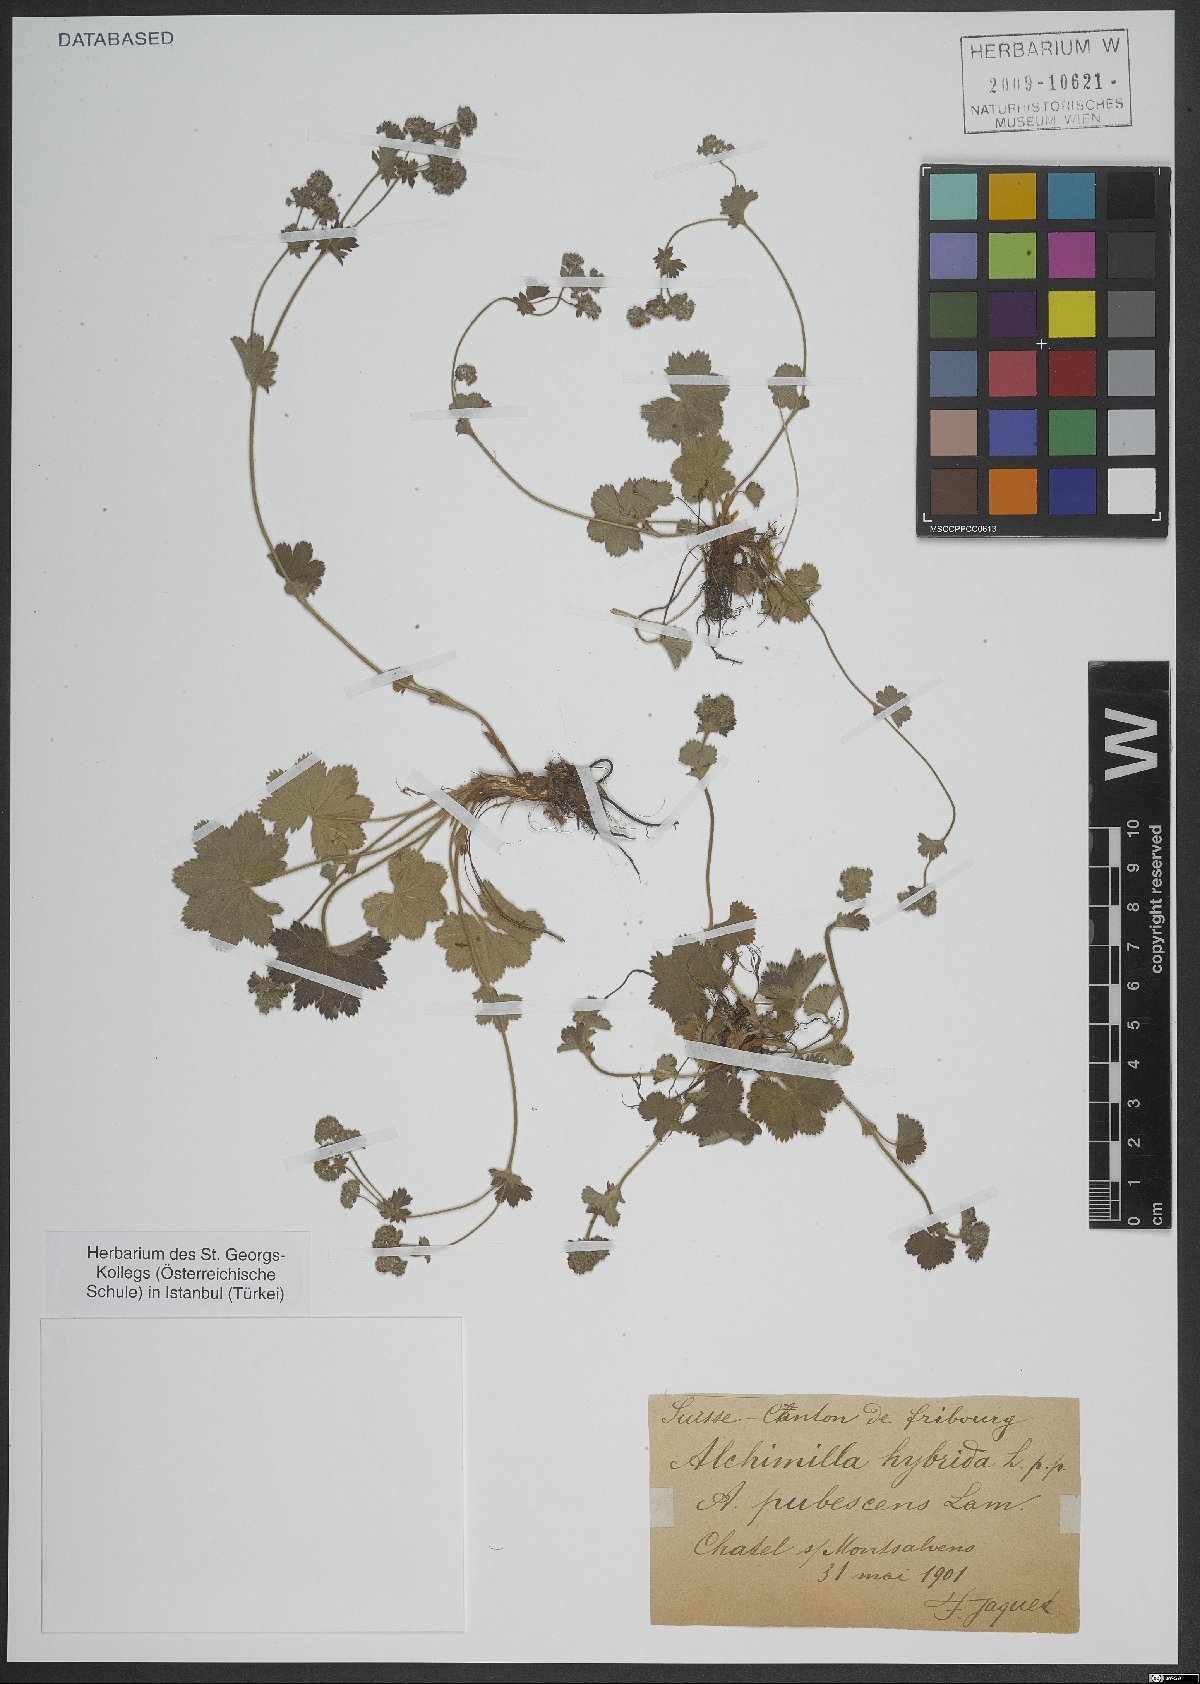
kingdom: Plantae
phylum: Tracheophyta
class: Magnoliopsida
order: Rosales
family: Rosaceae
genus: Alchemilla
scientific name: Alchemilla hybrida
